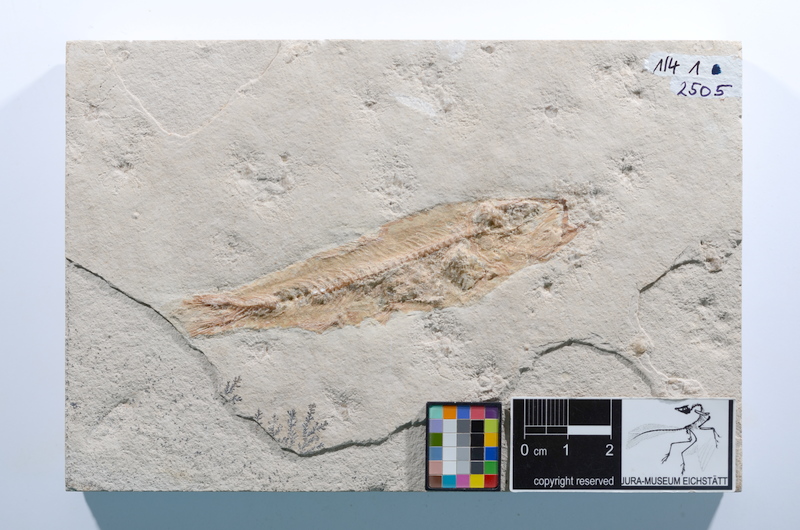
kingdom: Animalia
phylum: Chordata
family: Ascalaboidae
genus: Ascalabos
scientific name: Ascalabos voithii
